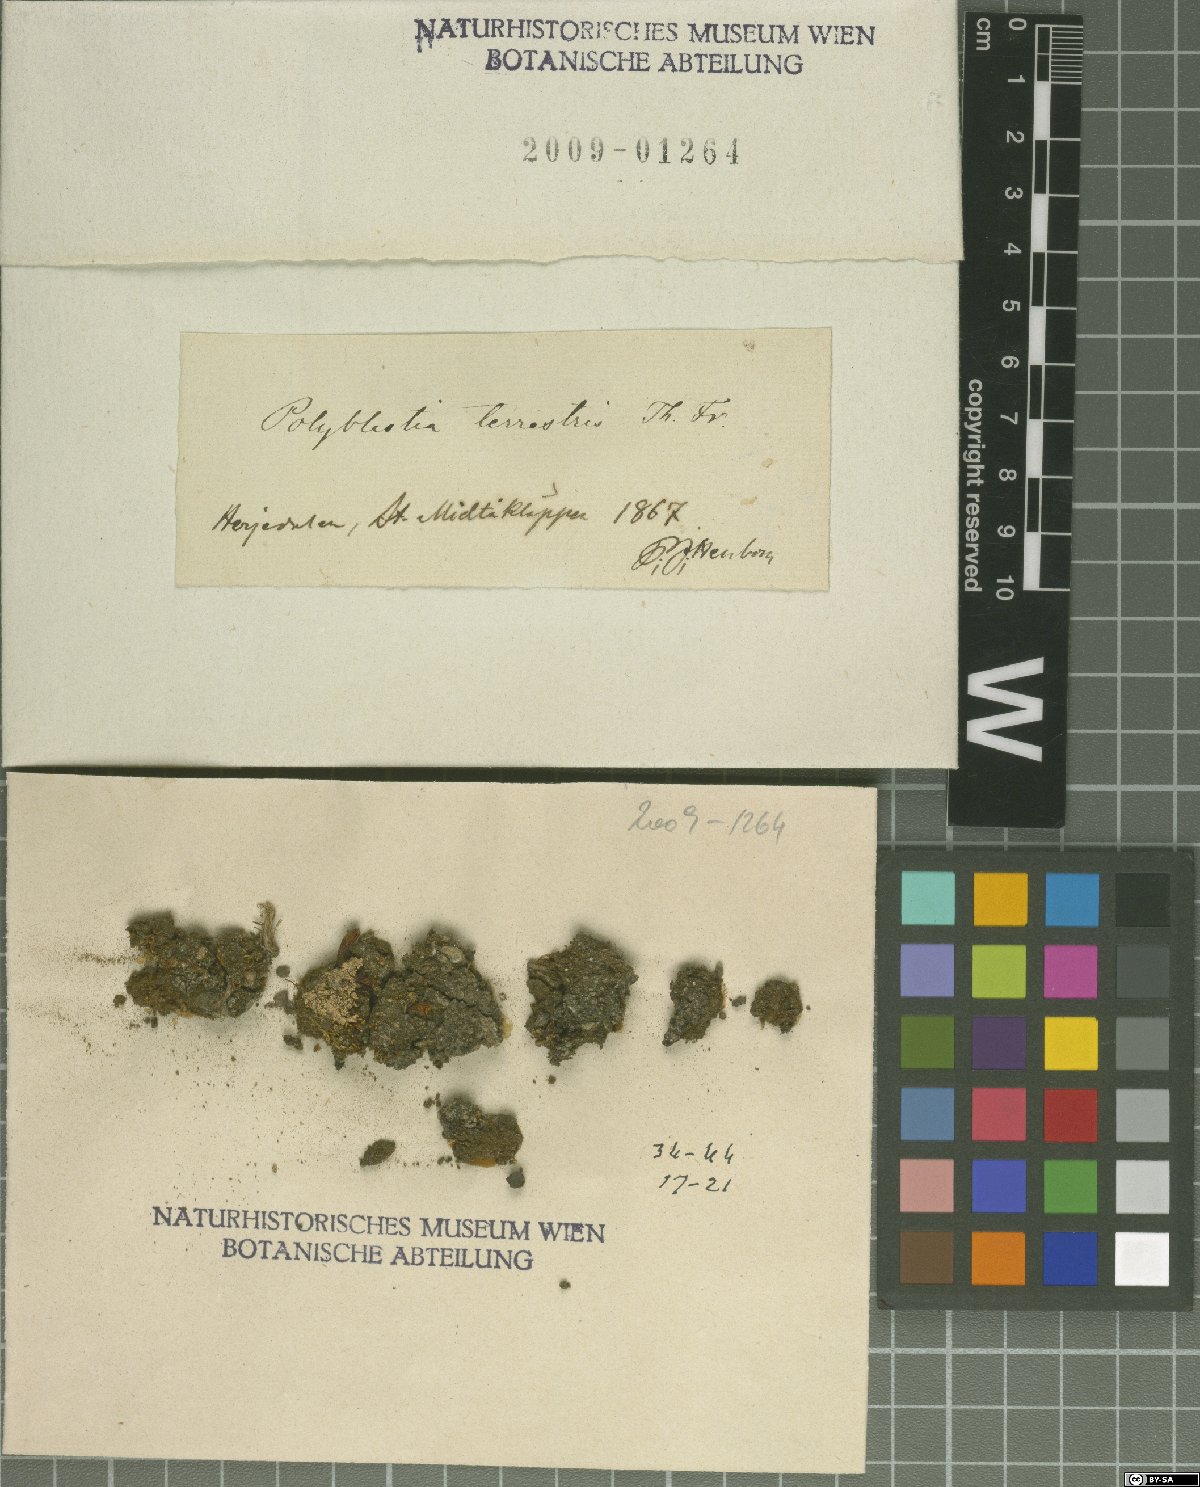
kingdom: Fungi
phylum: Ascomycota
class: Eurotiomycetes
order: Verrucariales
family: Verrucariaceae
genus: Polyblastia
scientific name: Polyblastia
